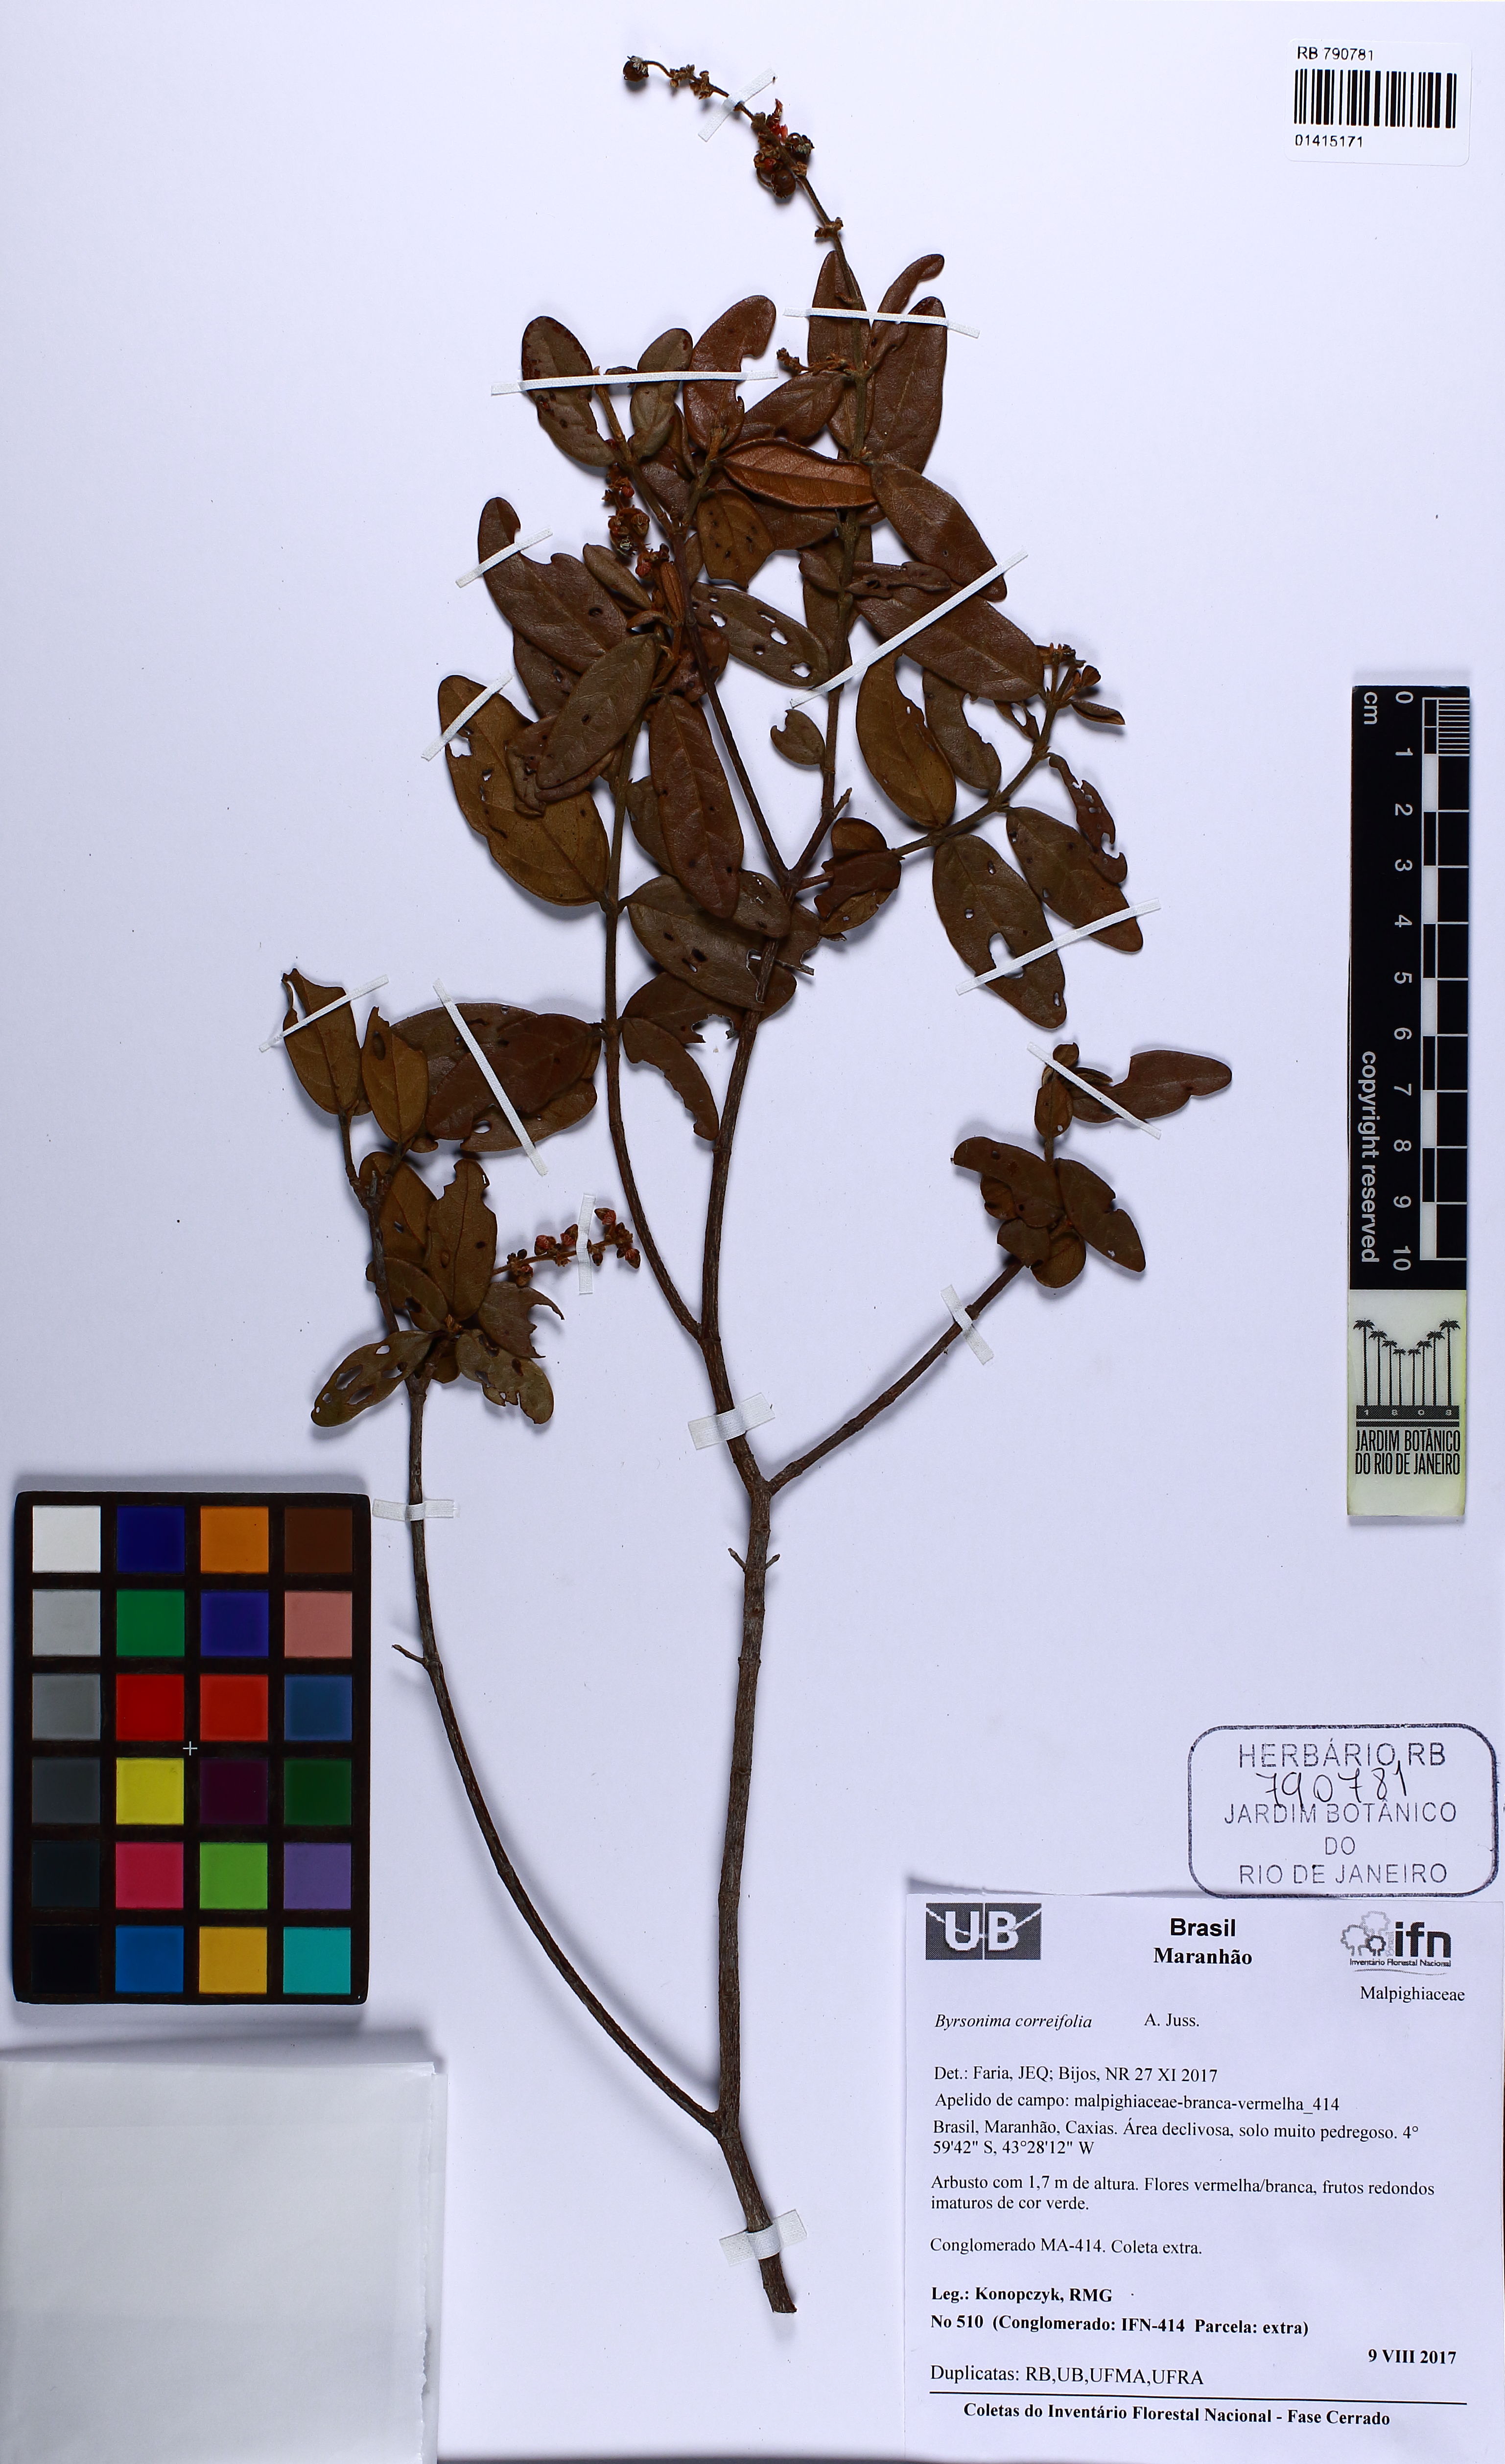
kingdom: Plantae
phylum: Tracheophyta
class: Magnoliopsida
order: Malpighiales
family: Malpighiaceae
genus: Byrsonima
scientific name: Byrsonima correifolia
